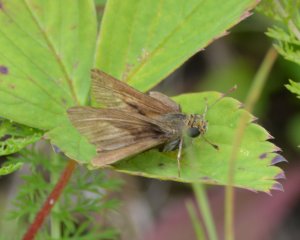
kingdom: Animalia
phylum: Arthropoda
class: Insecta
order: Lepidoptera
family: Hesperiidae
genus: Euphyes
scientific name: Euphyes vestris
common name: Dun Skipper
